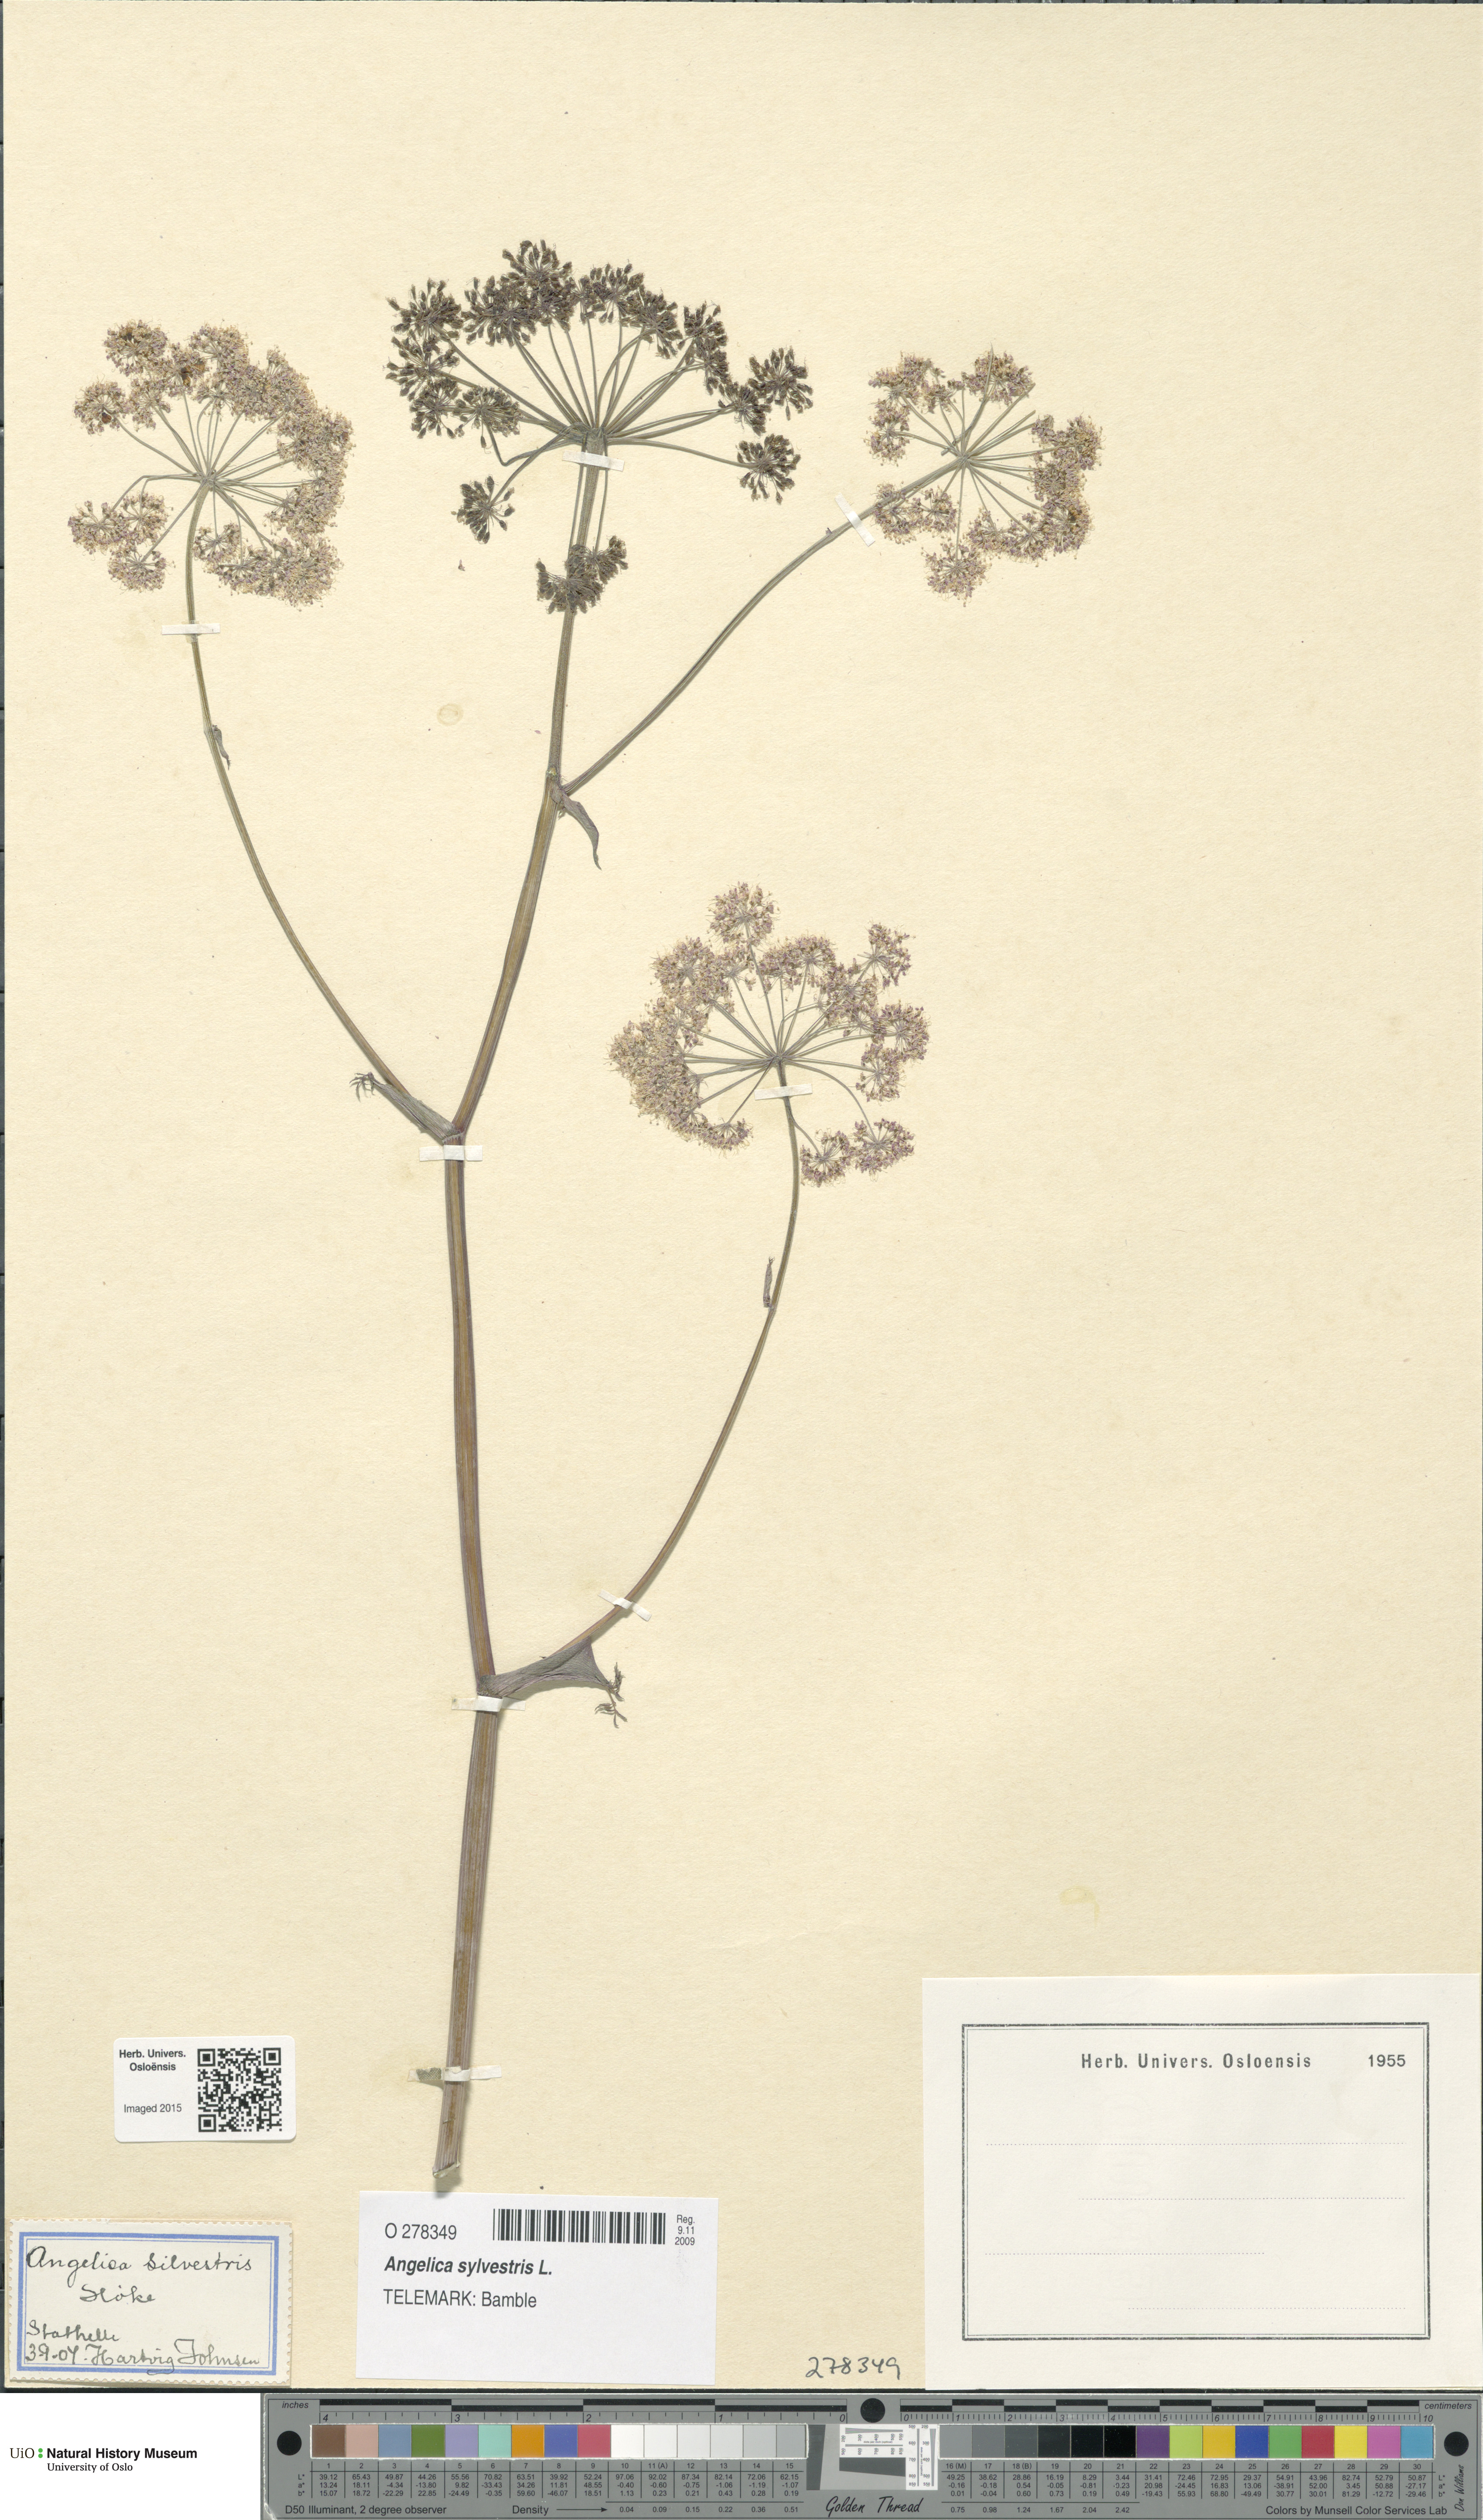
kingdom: Plantae
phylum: Tracheophyta
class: Magnoliopsida
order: Apiales
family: Apiaceae
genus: Angelica
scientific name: Angelica sylvestris
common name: Wild angelica
